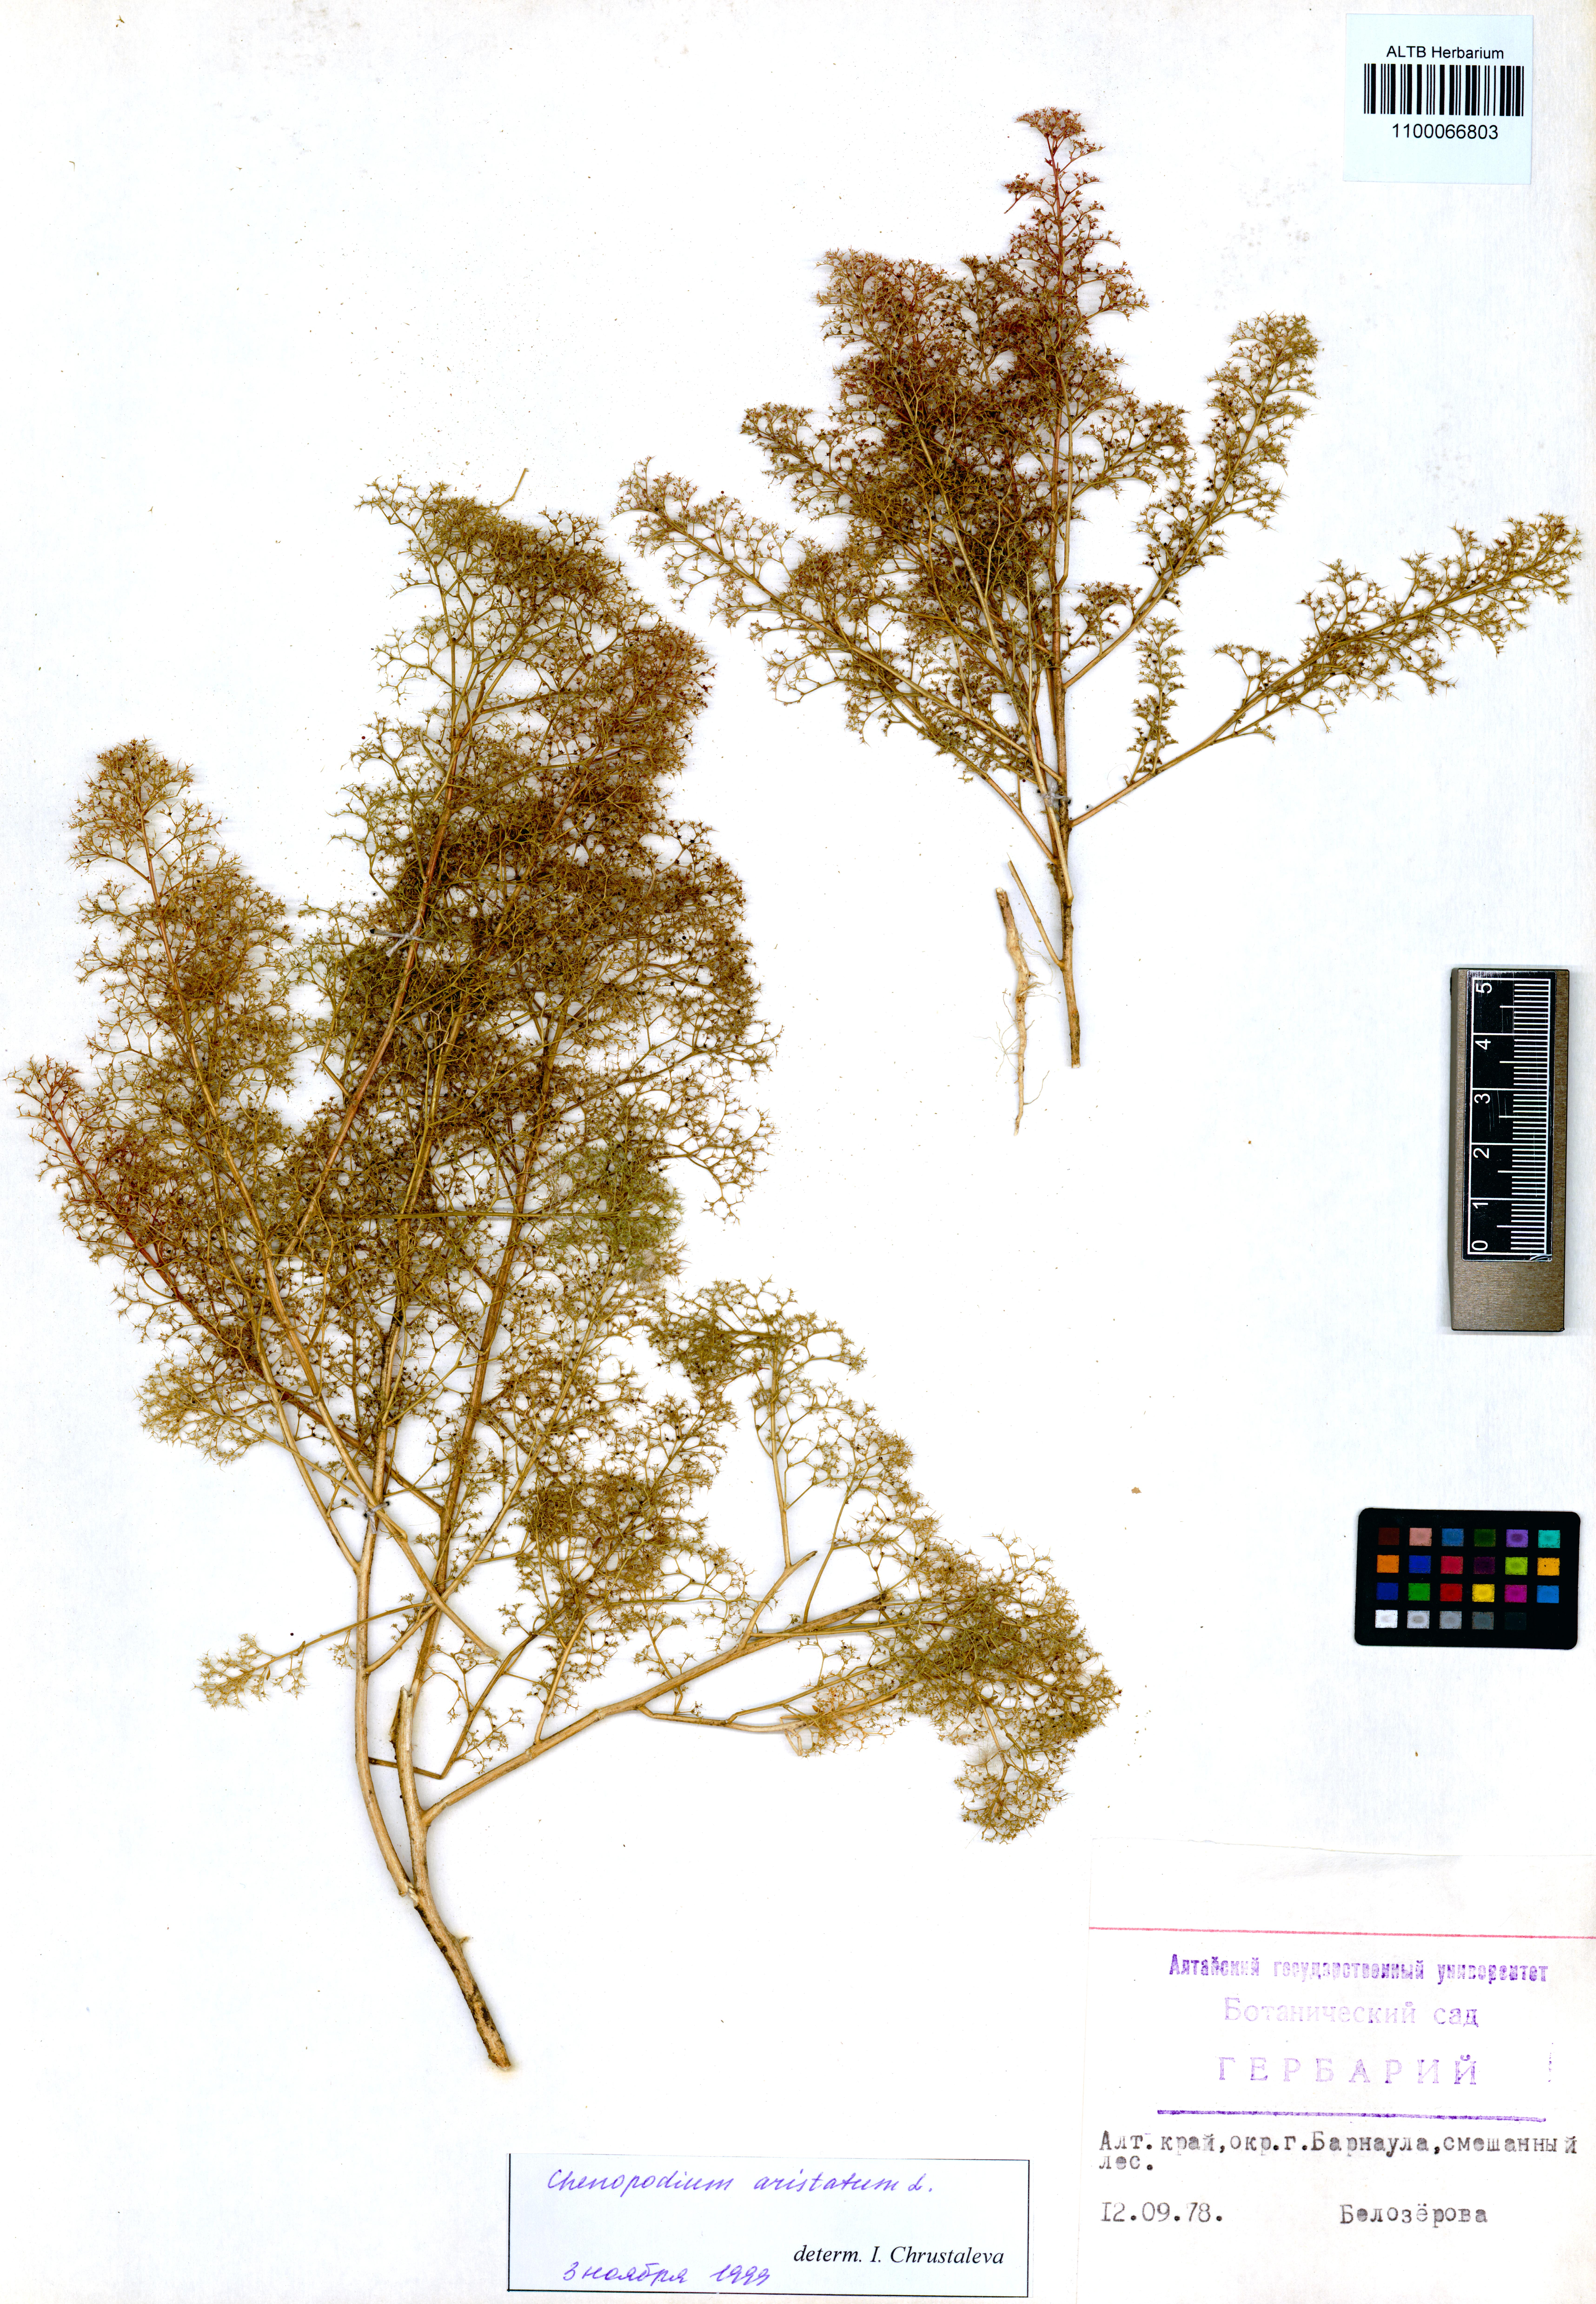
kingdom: Plantae
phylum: Tracheophyta
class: Magnoliopsida
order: Caryophyllales
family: Amaranthaceae
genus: Teloxys
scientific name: Teloxys aristata
